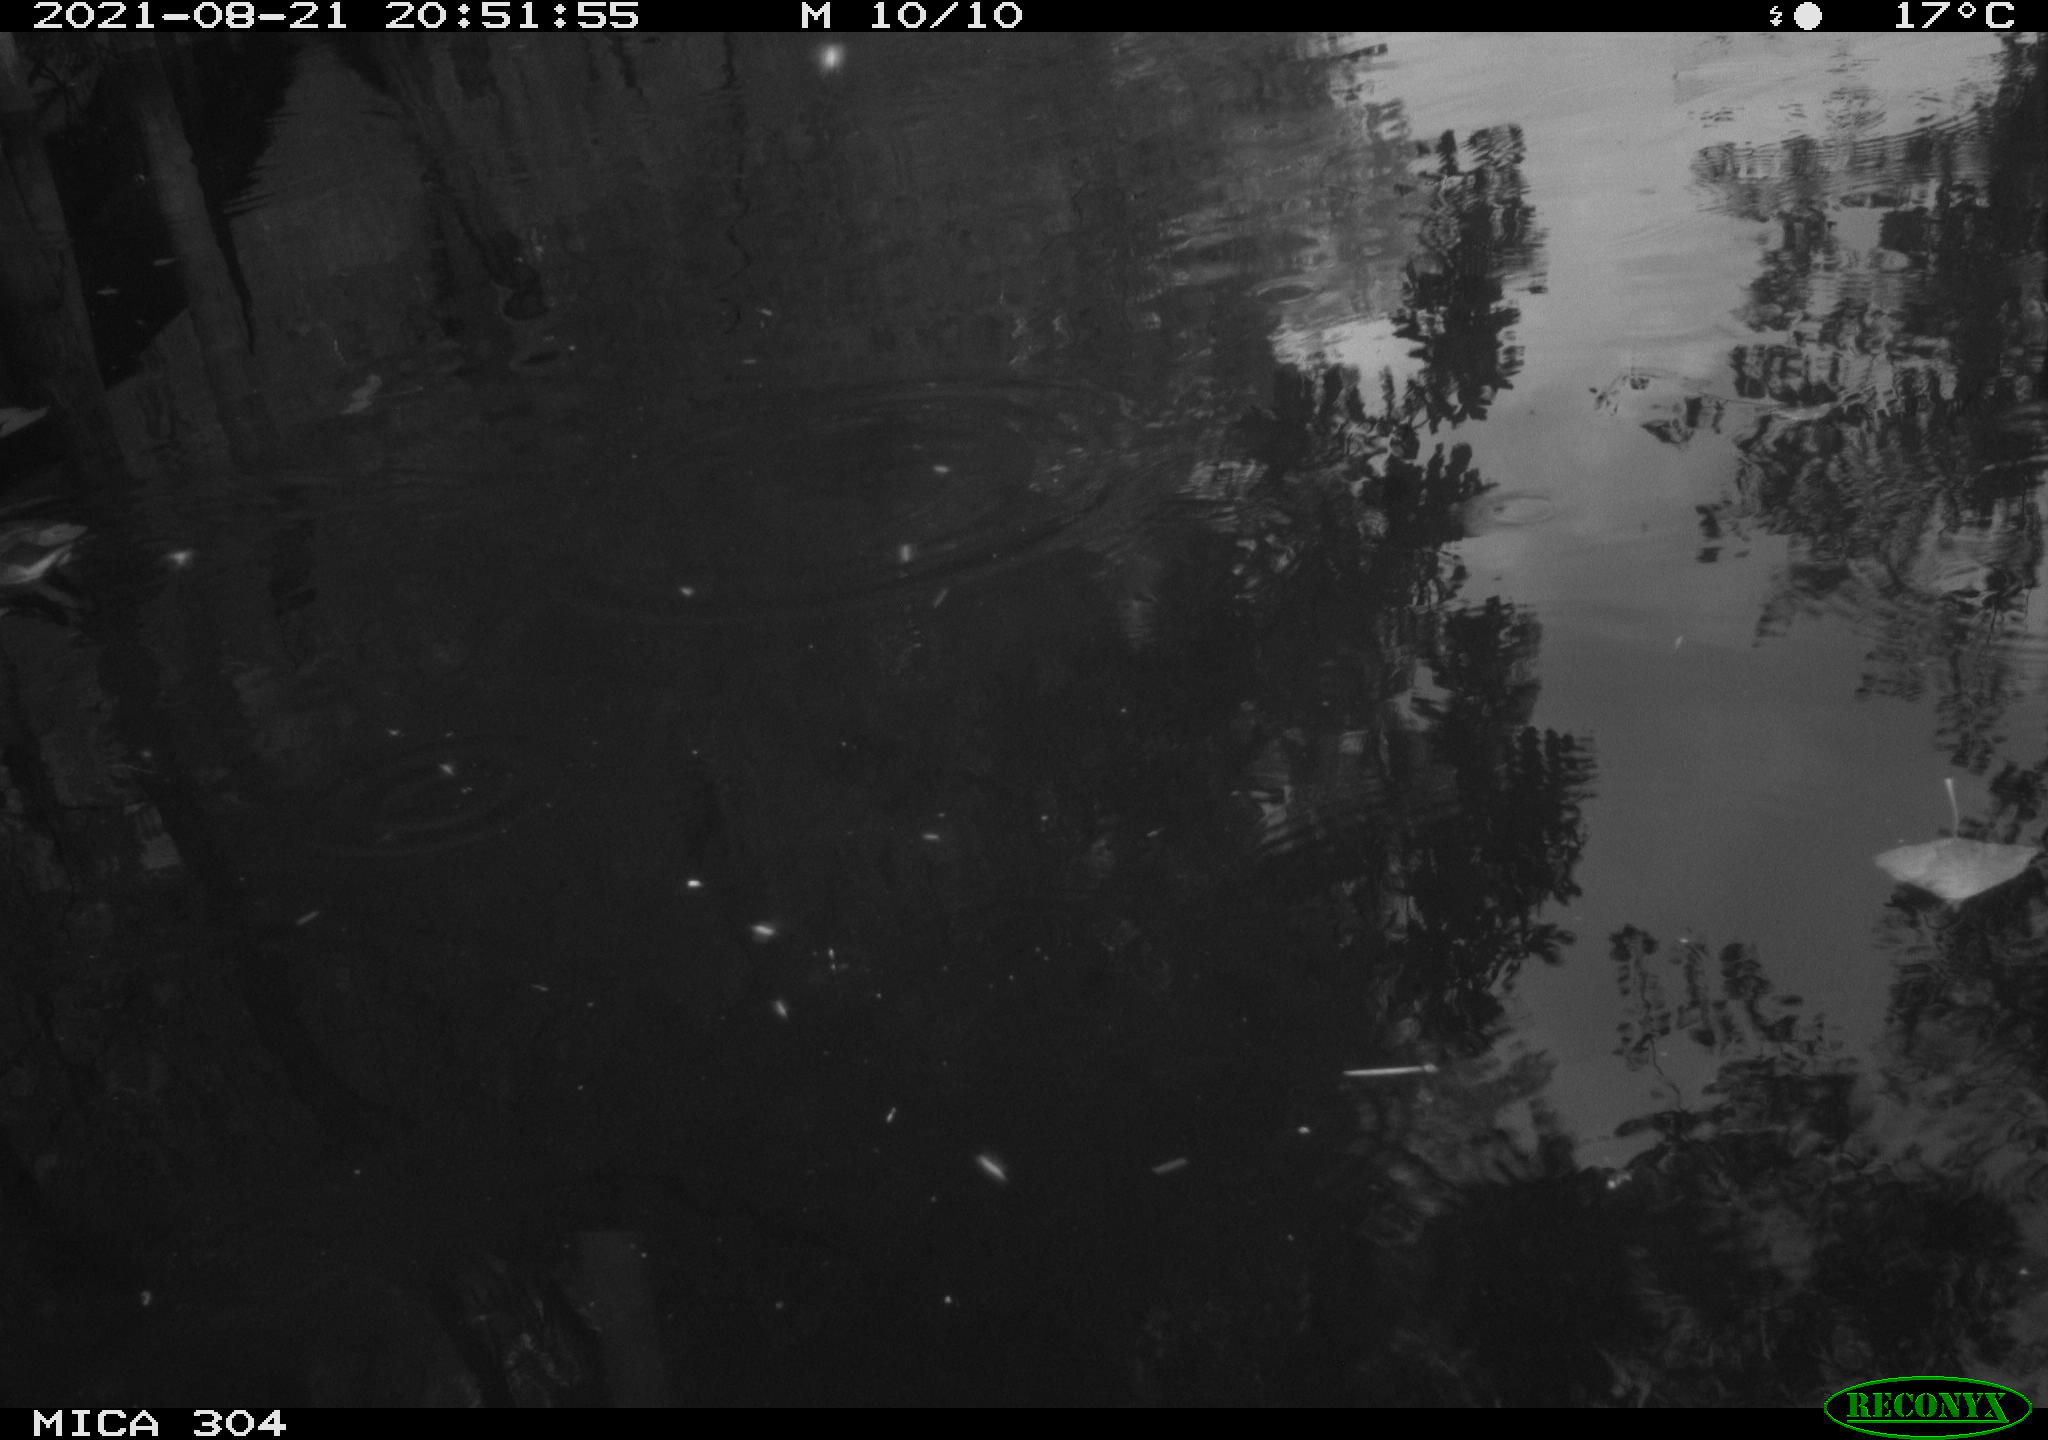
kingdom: Animalia
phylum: Chordata
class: Aves
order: Gruiformes
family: Rallidae
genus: Gallinula
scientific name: Gallinula chloropus
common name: Common moorhen
